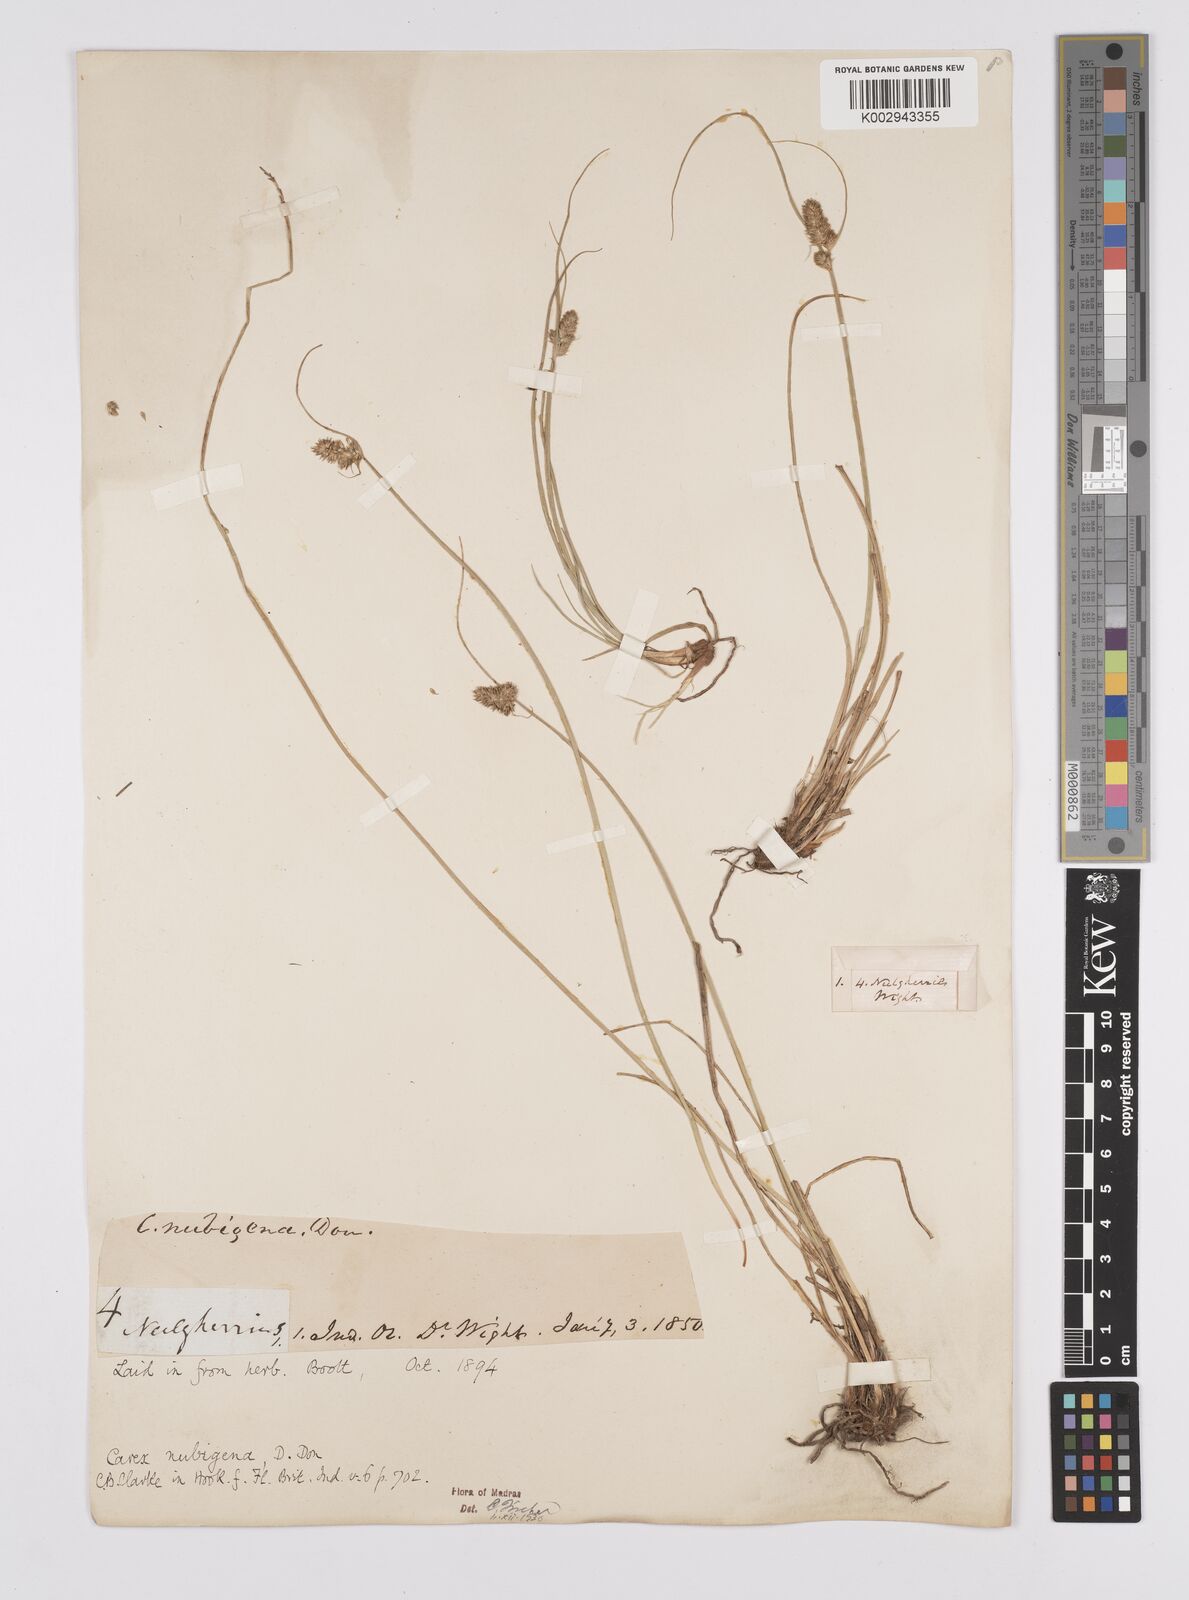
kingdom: Plantae
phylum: Tracheophyta
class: Liliopsida
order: Poales
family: Cyperaceae
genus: Carex
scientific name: Carex nubigena
